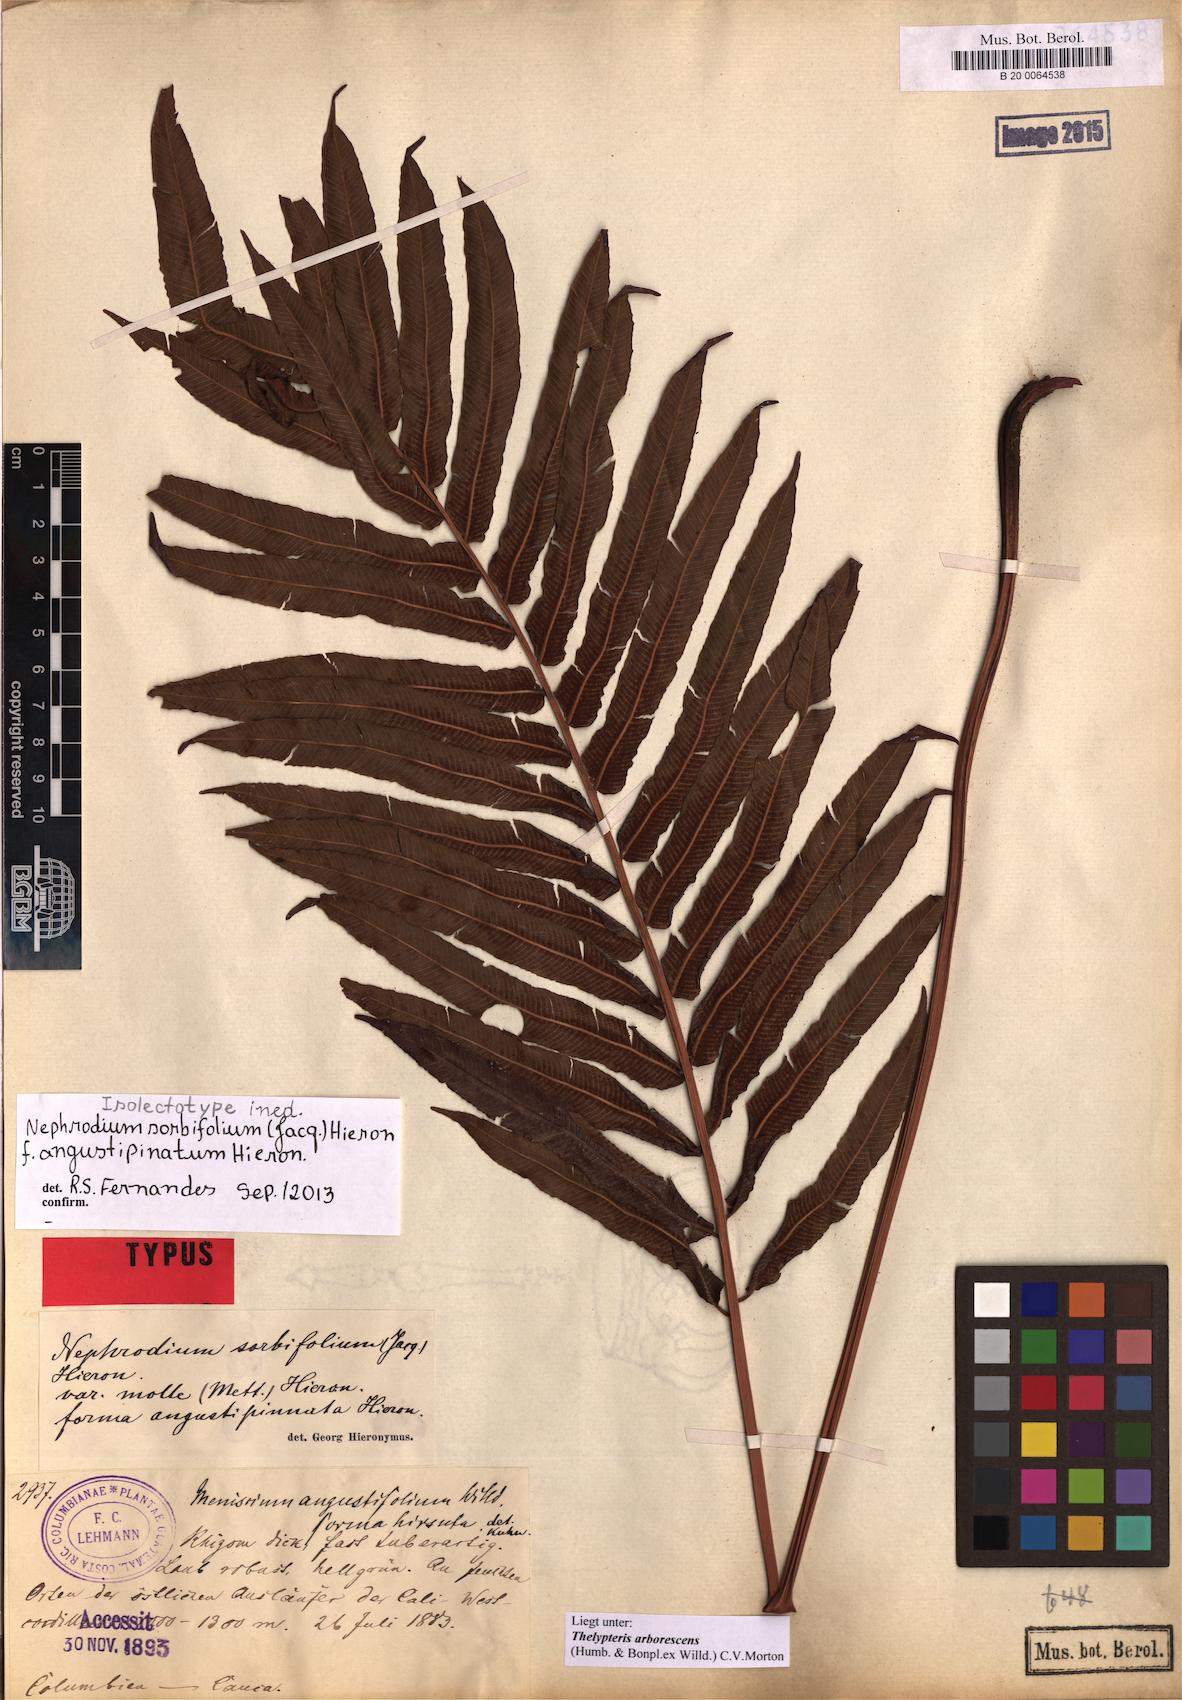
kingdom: Plantae
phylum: Tracheophyta
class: Polypodiopsida
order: Polypodiales
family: Thelypteridaceae
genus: Meniscium
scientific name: Meniscium arborescens
